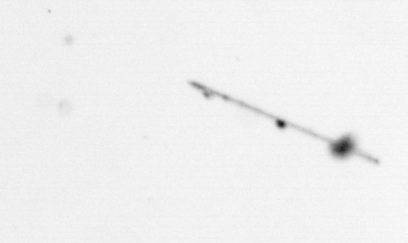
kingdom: Chromista
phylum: Ochrophyta
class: Bacillariophyceae
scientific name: Bacillariophyceae
